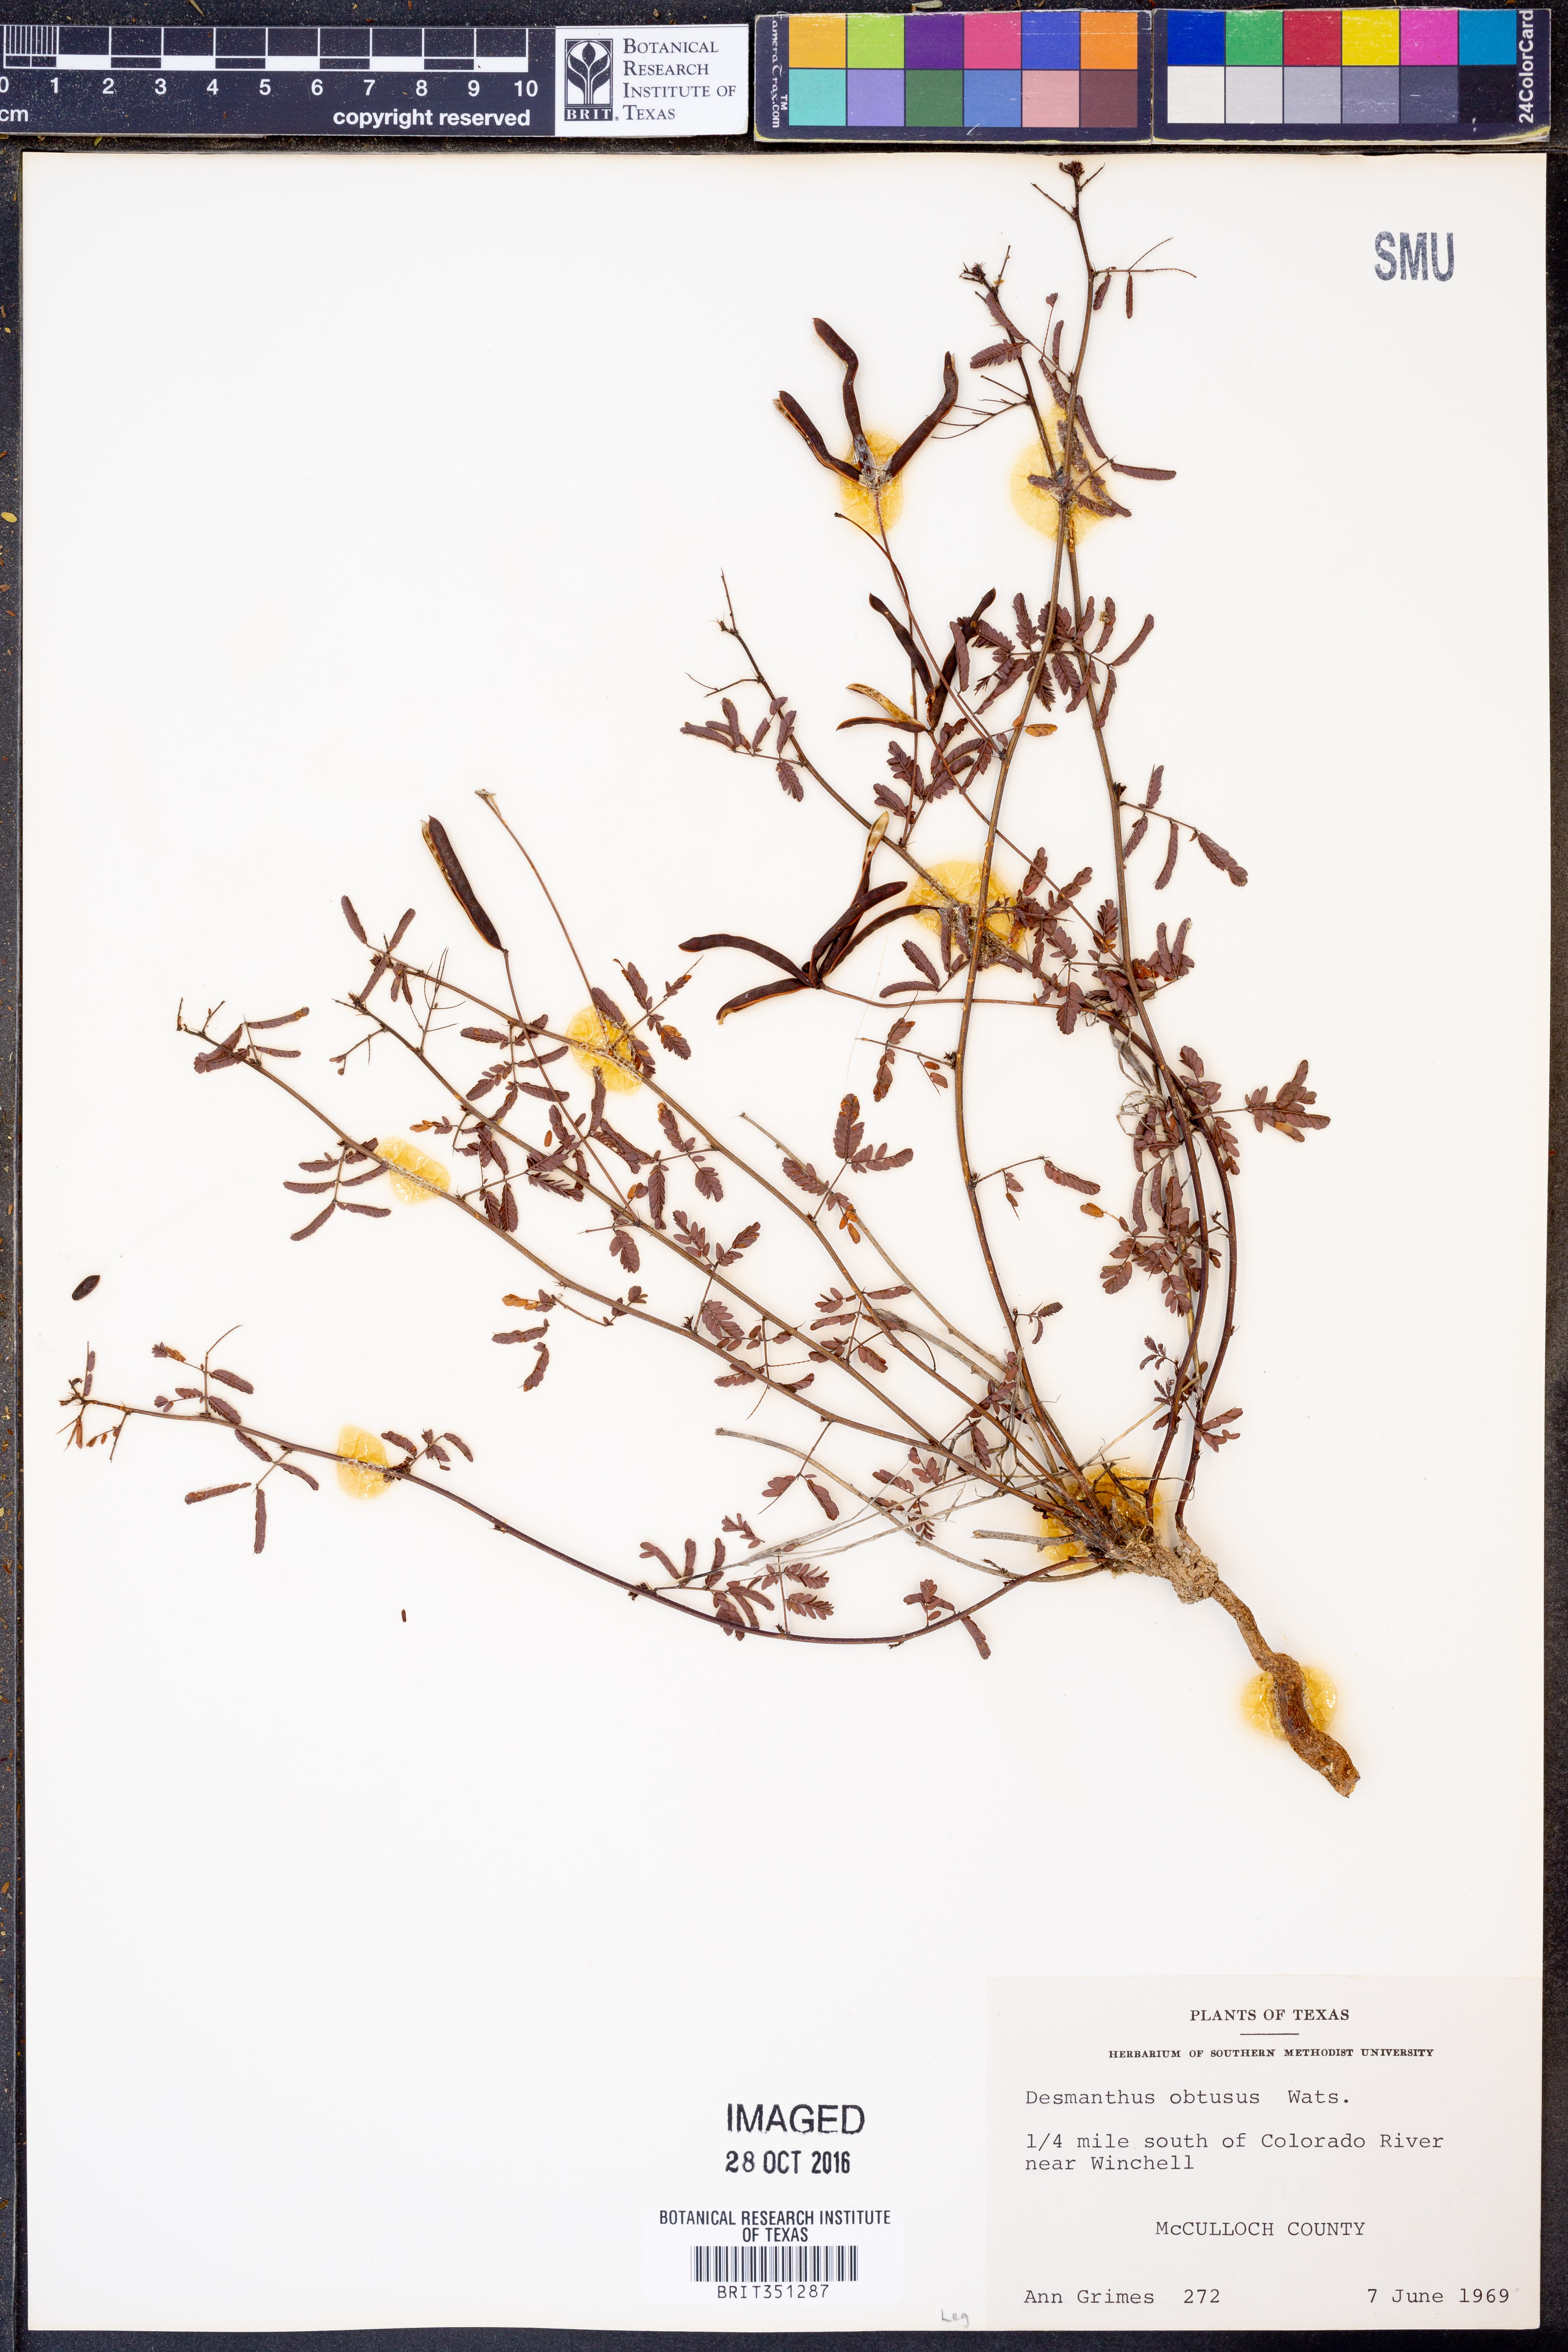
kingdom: Plantae
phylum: Tracheophyta
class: Magnoliopsida
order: Fabales
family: Fabaceae
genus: Desmanthus
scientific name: Desmanthus obtusus
